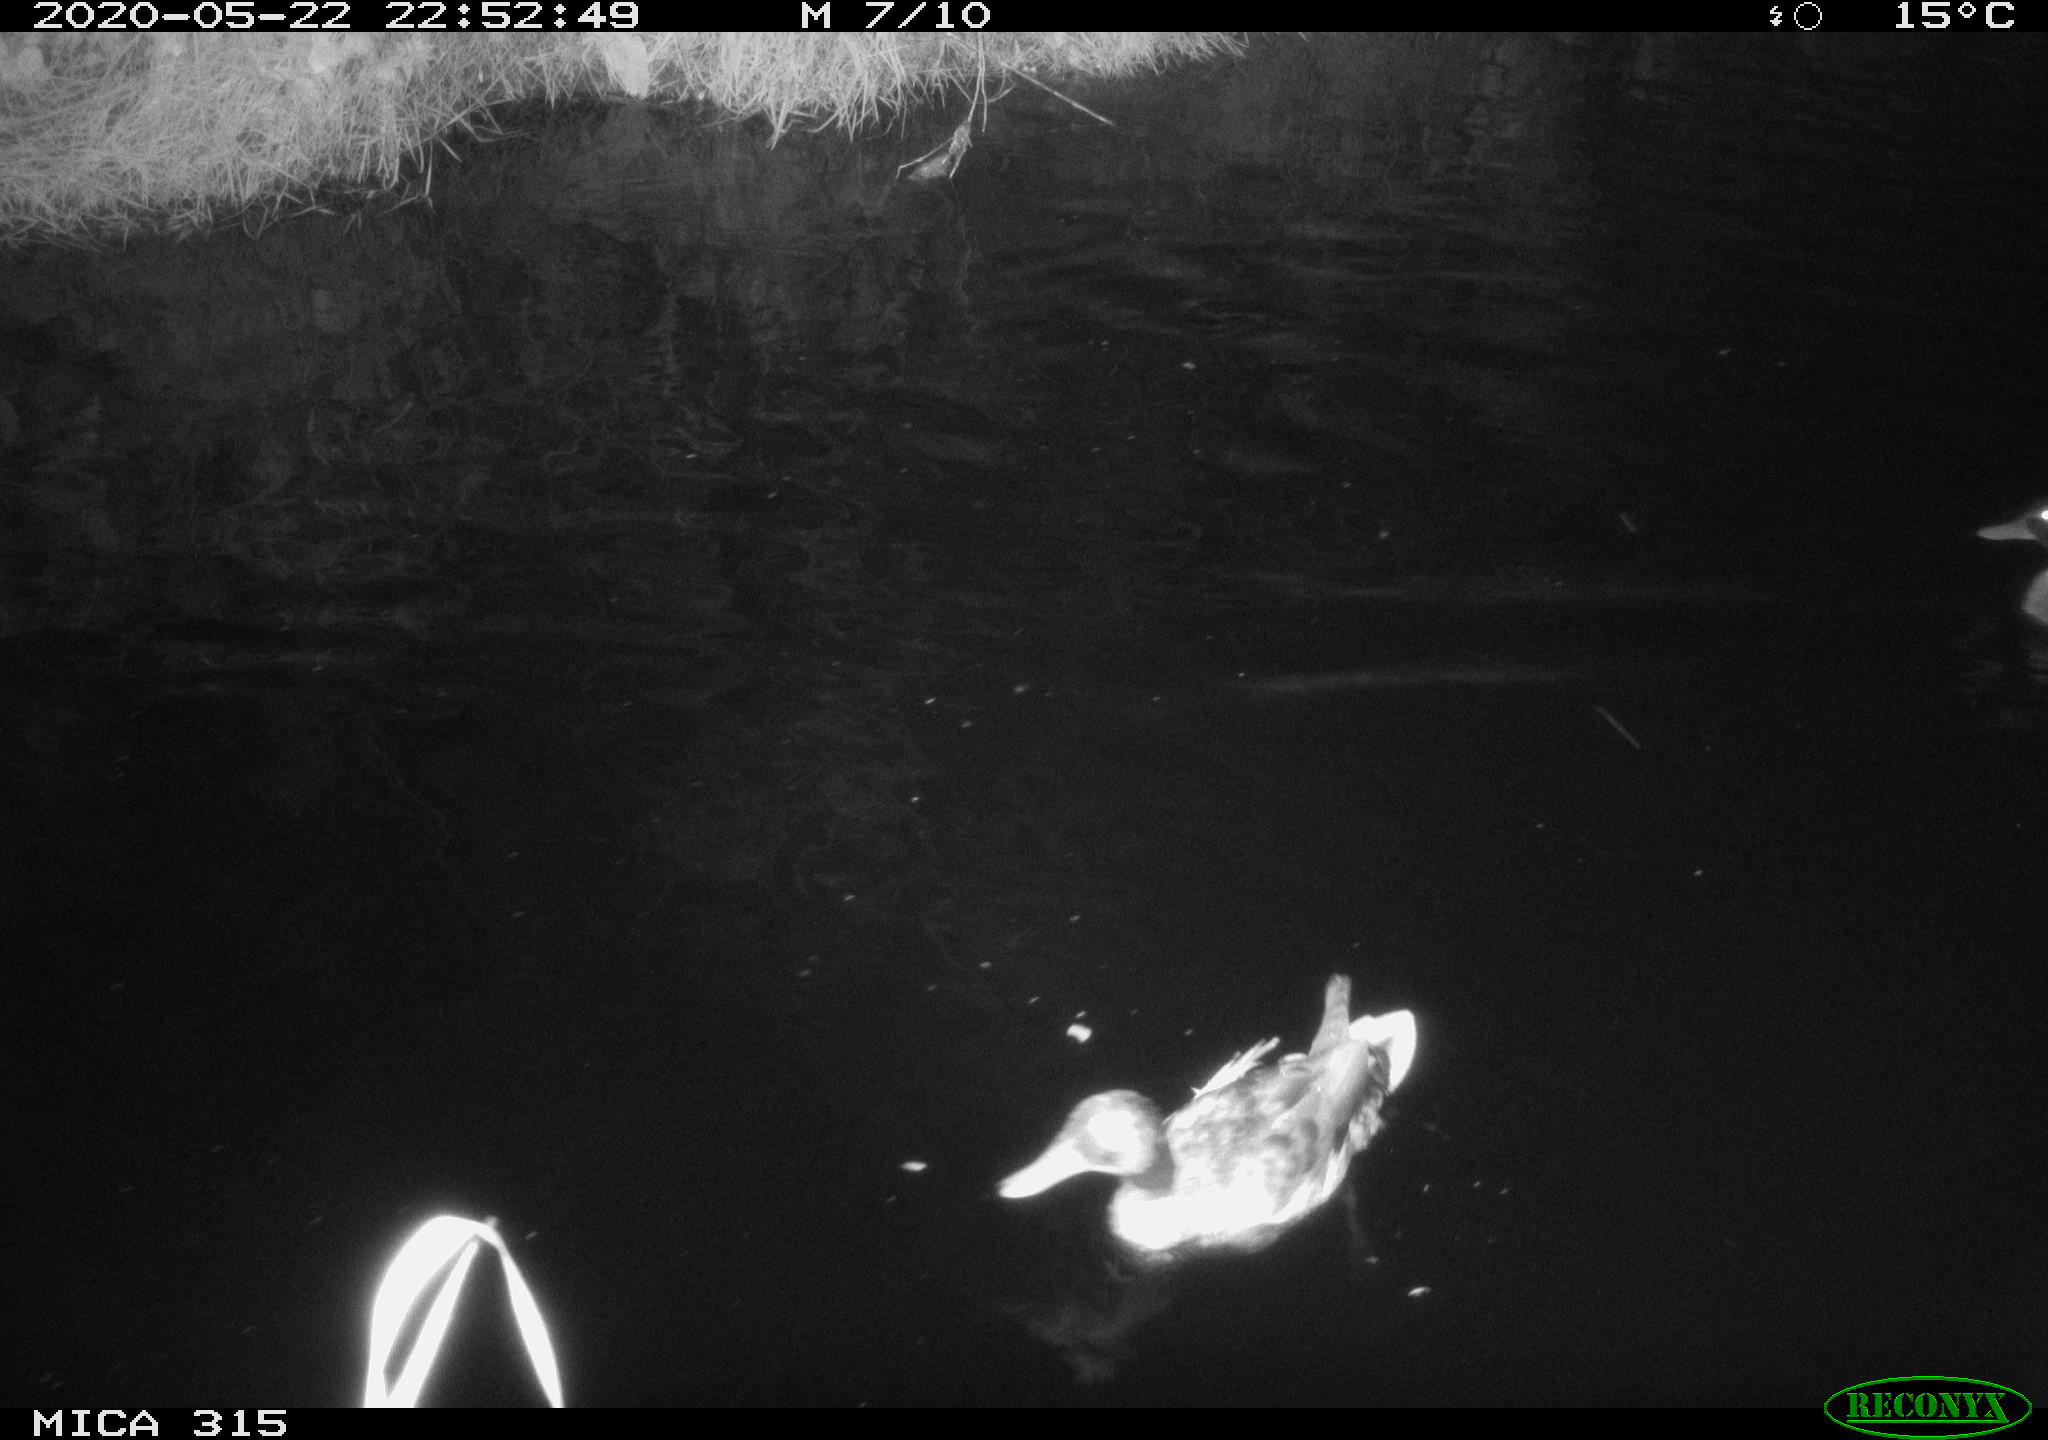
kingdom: Animalia
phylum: Chordata
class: Aves
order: Anseriformes
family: Anatidae
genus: Anas
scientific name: Anas platyrhynchos
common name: Mallard
